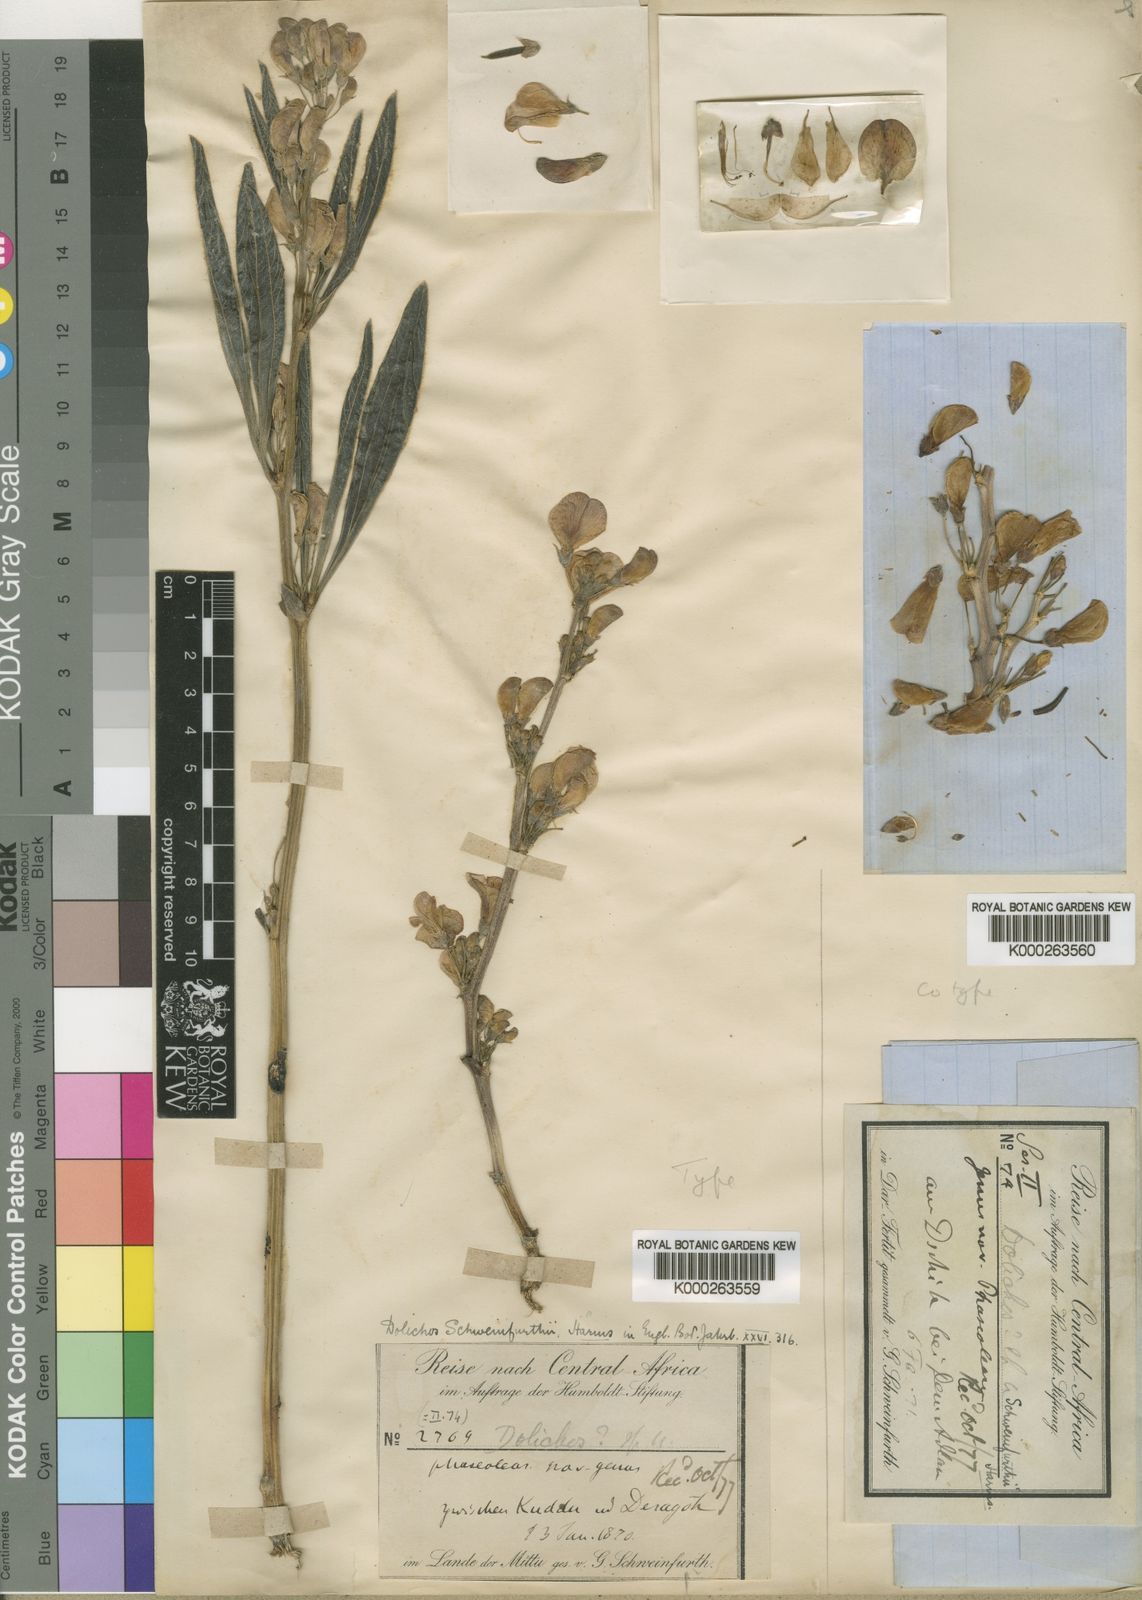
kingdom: Plantae
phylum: Tracheophyta
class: Magnoliopsida
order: Fabales
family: Fabaceae
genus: Dolichos
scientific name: Dolichos
